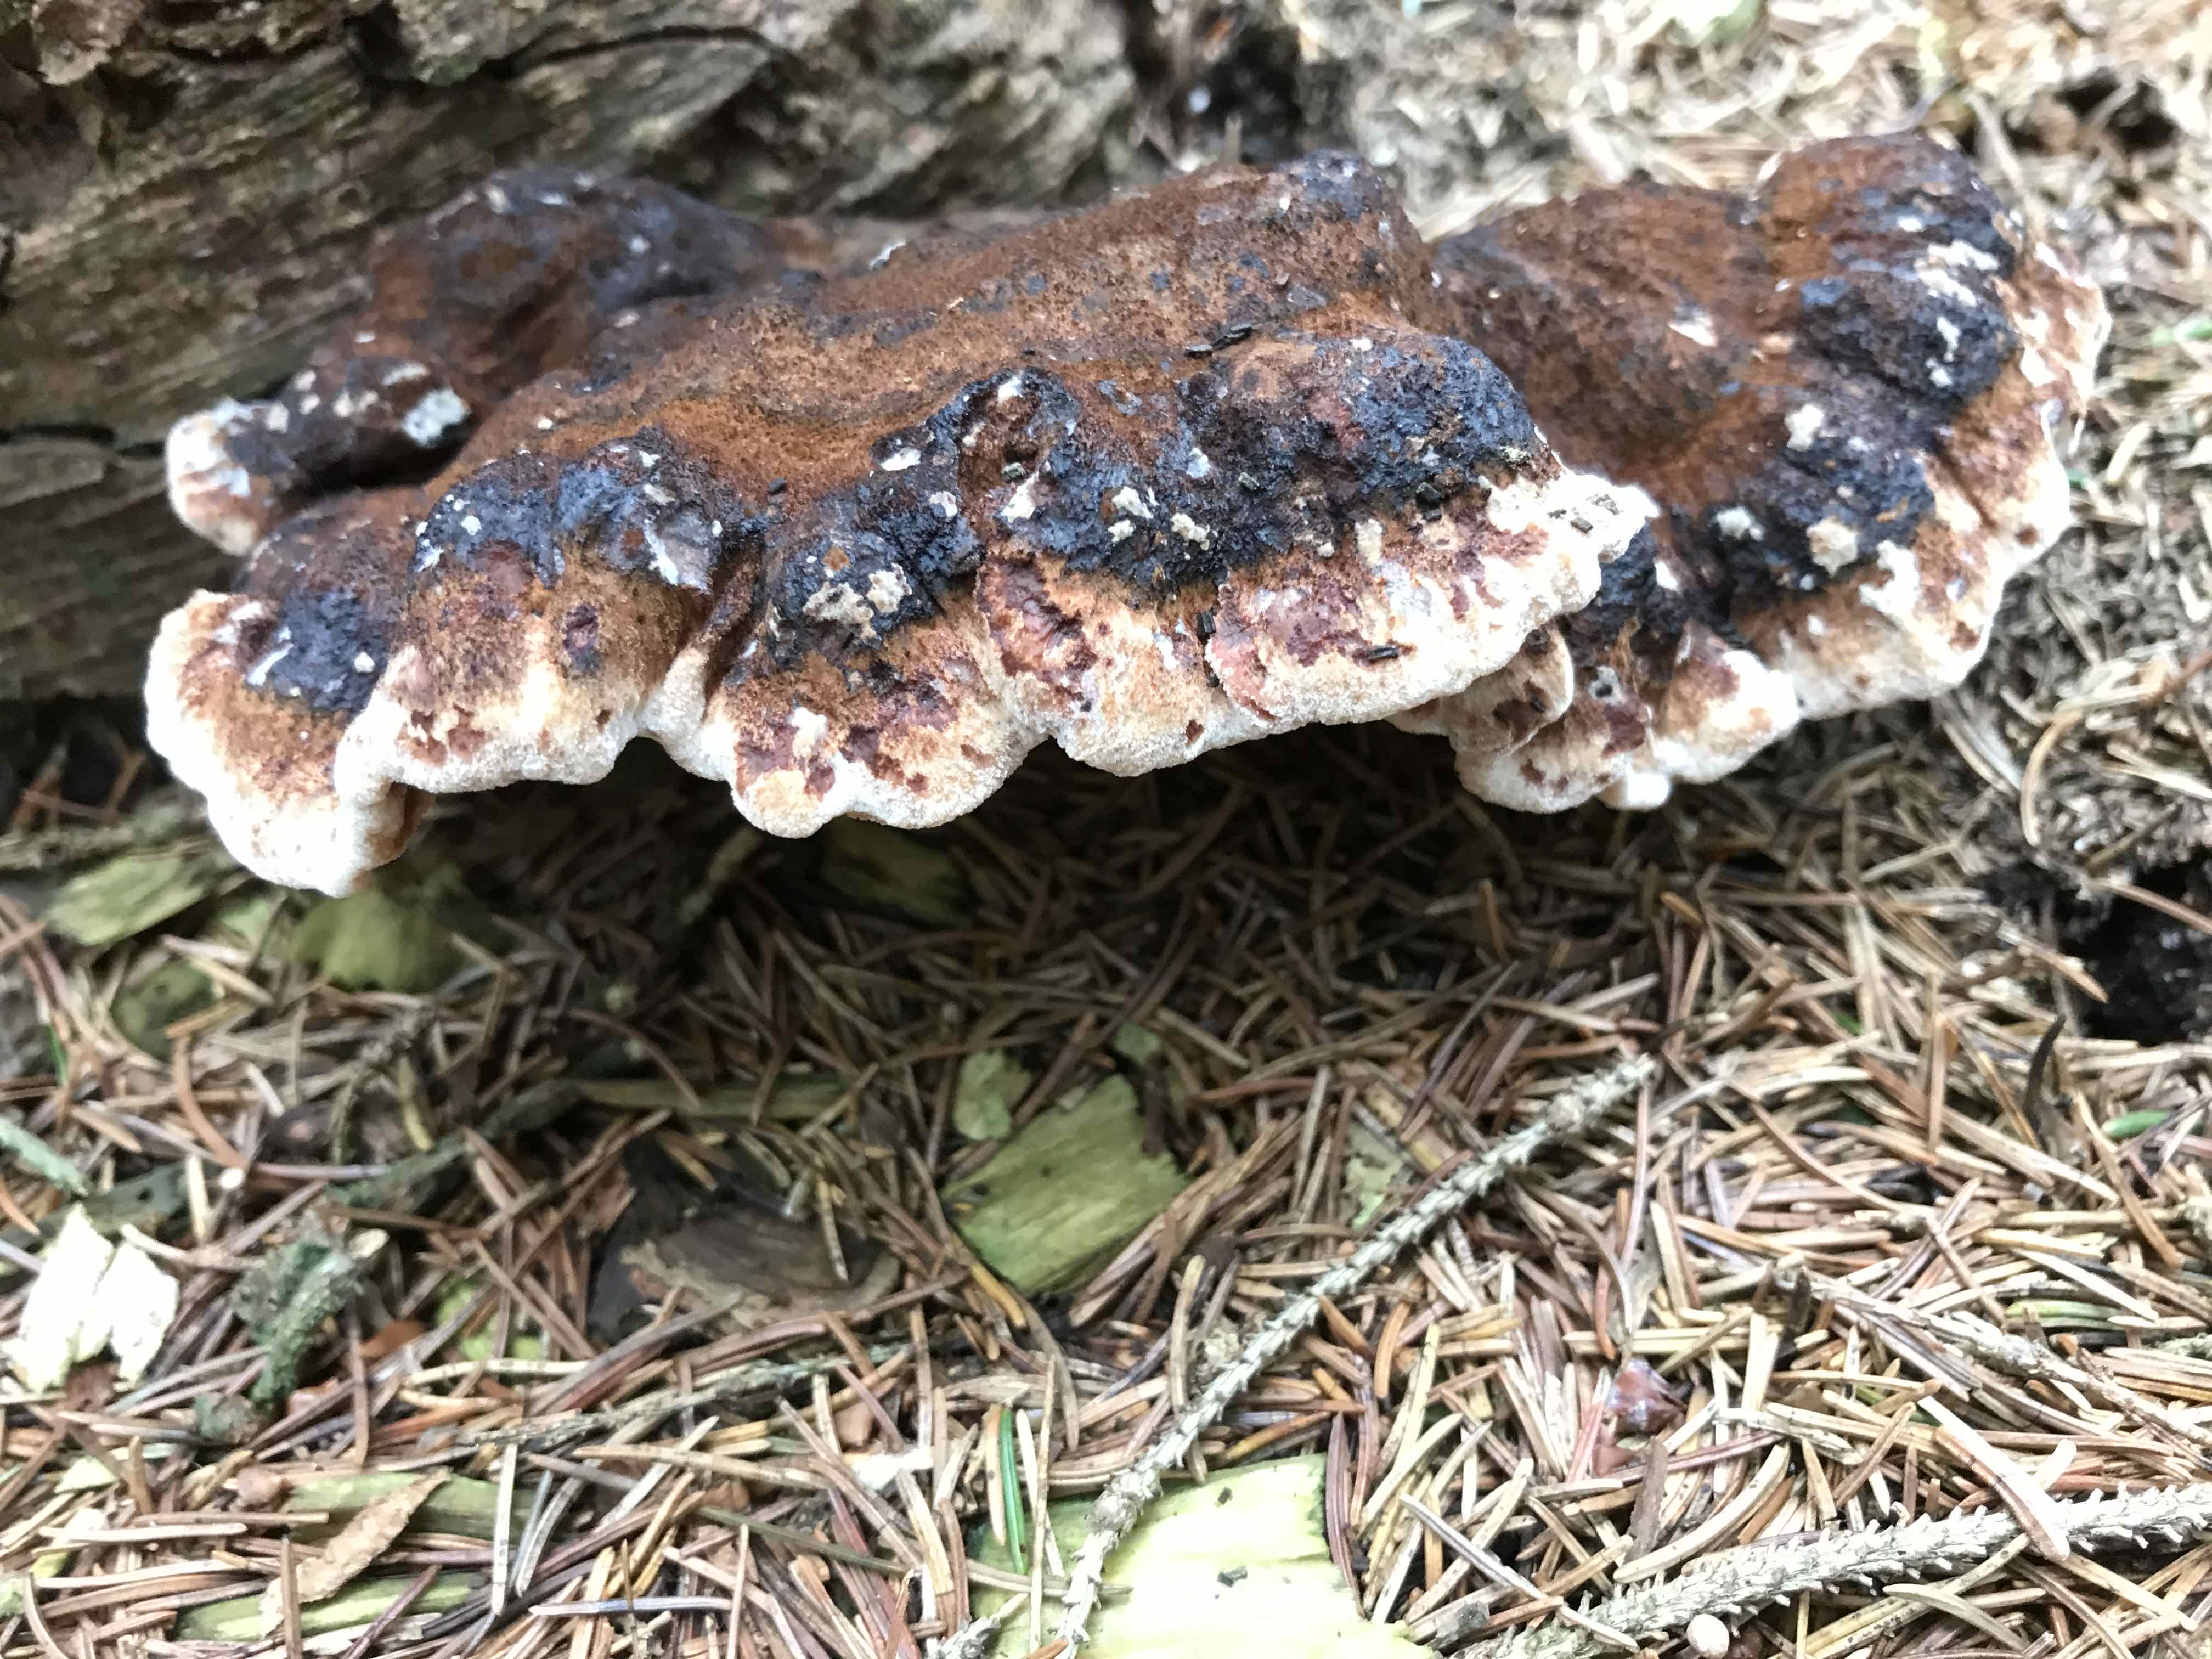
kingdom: Fungi
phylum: Basidiomycota
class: Agaricomycetes
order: Polyporales
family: Ischnodermataceae
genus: Ischnoderma
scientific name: Ischnoderma benzoinum
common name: gran-tjæreporesvamp
